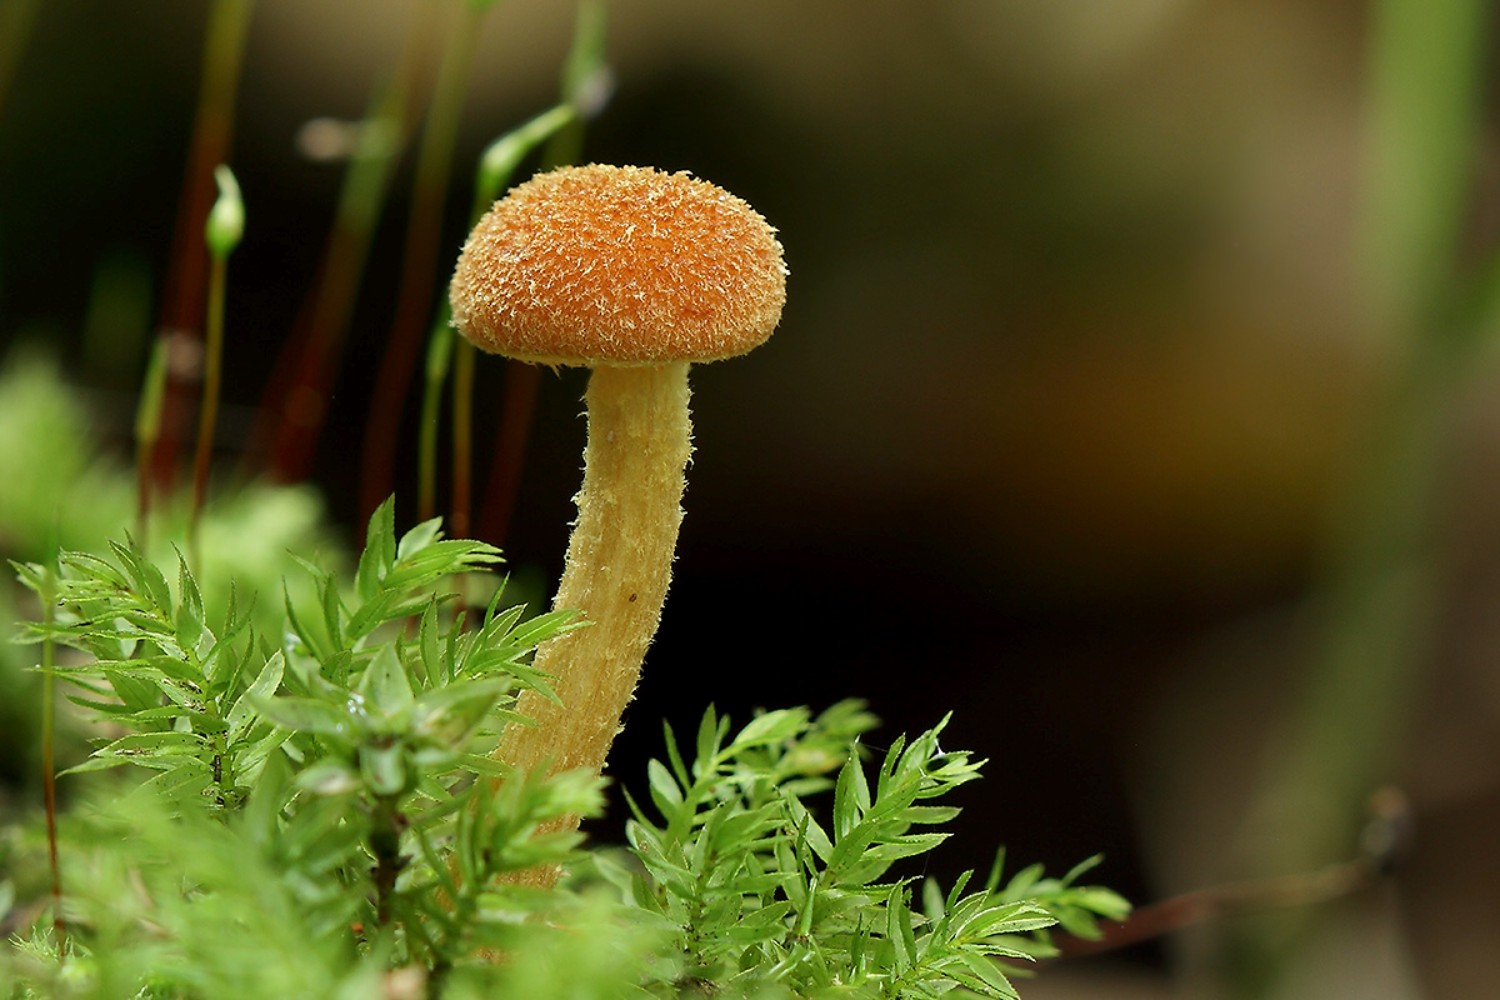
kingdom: Fungi
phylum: Basidiomycota
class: Agaricomycetes
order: Agaricales
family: Tubariaceae
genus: Flammulaster
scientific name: Flammulaster limulatus
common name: gylden grynskælhat
